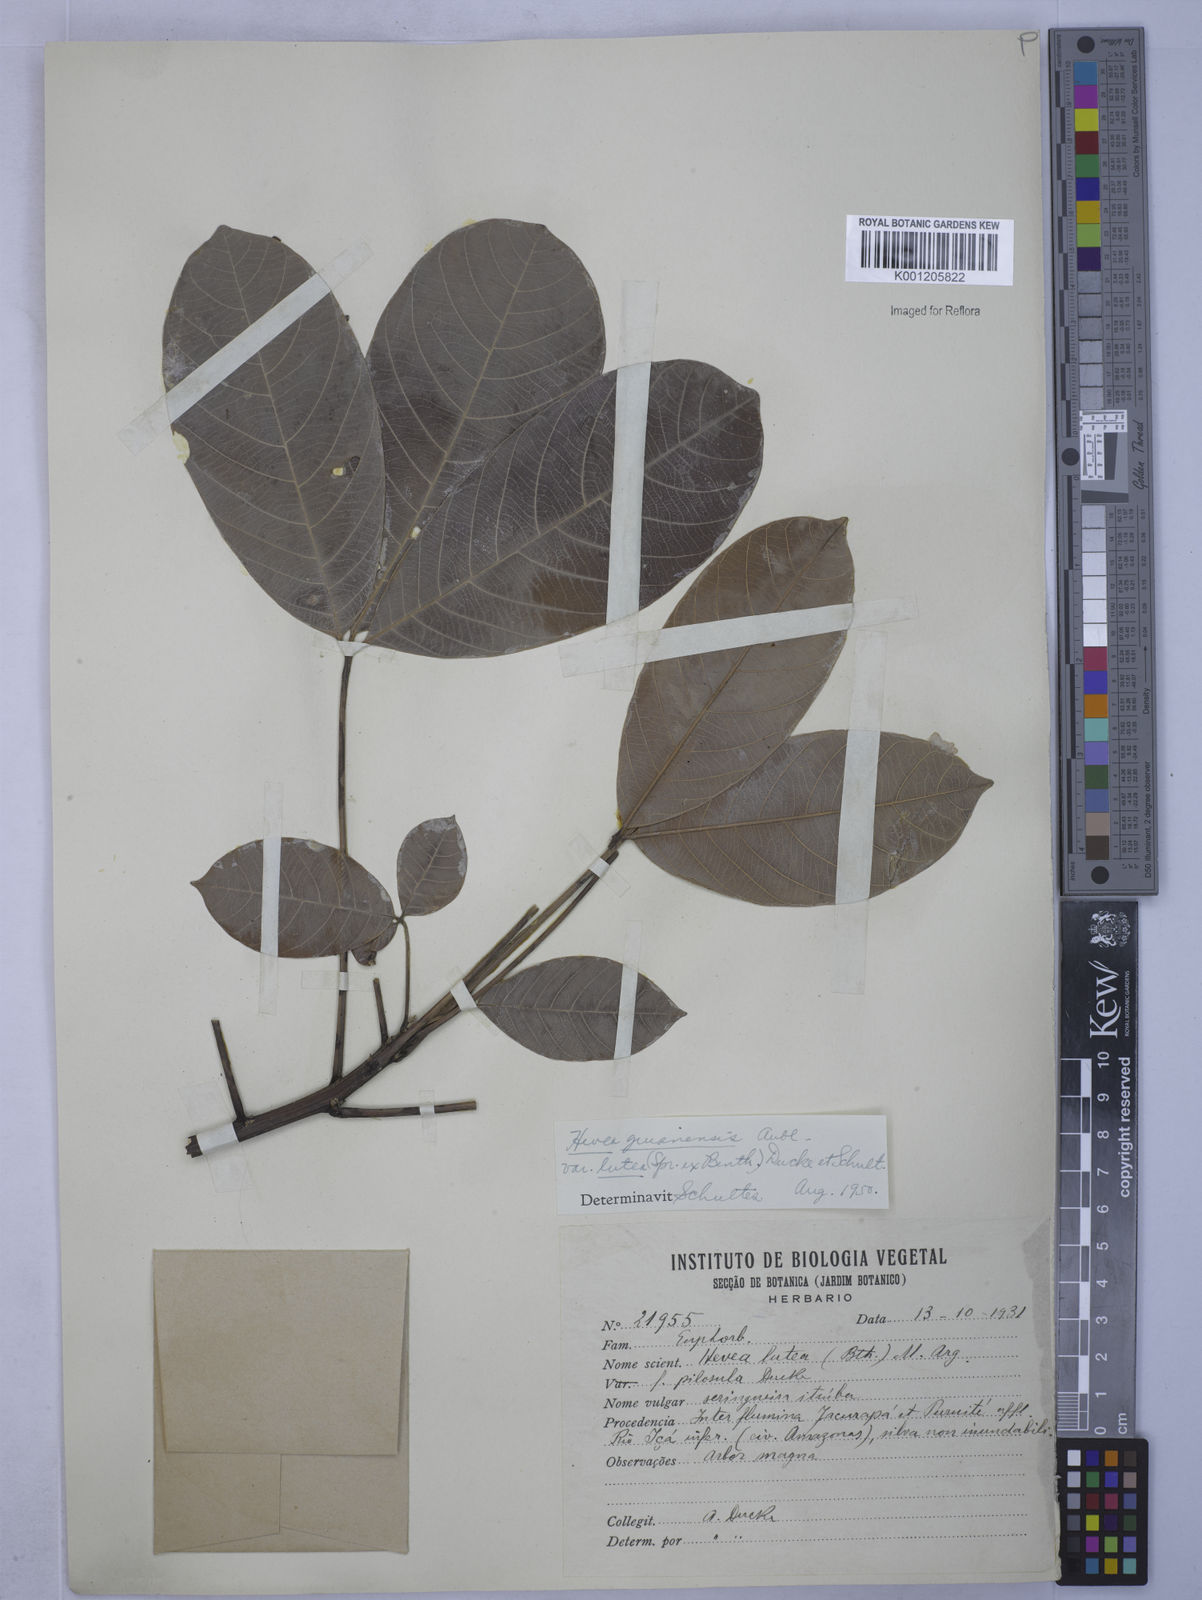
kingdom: Plantae
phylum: Tracheophyta
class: Magnoliopsida
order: Malpighiales
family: Euphorbiaceae
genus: Hevea
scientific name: Hevea guianensis
